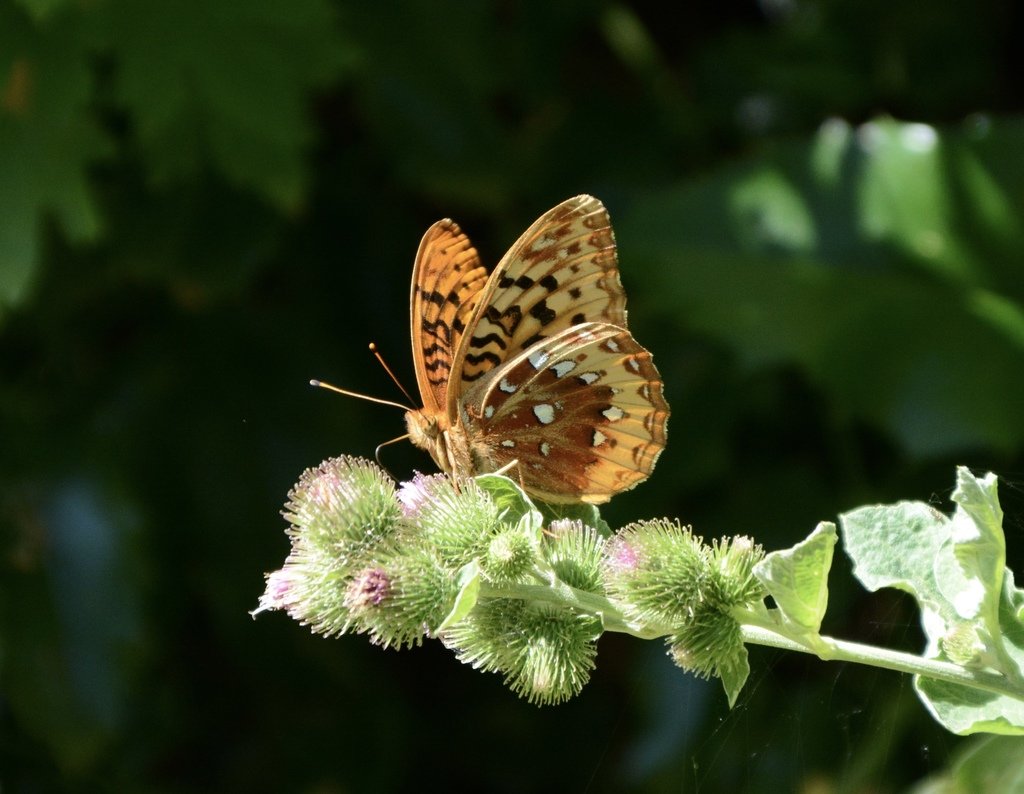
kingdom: Animalia
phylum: Arthropoda
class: Insecta
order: Lepidoptera
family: Nymphalidae
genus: Speyeria
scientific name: Speyeria cybele
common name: Great Spangled Fritillary
